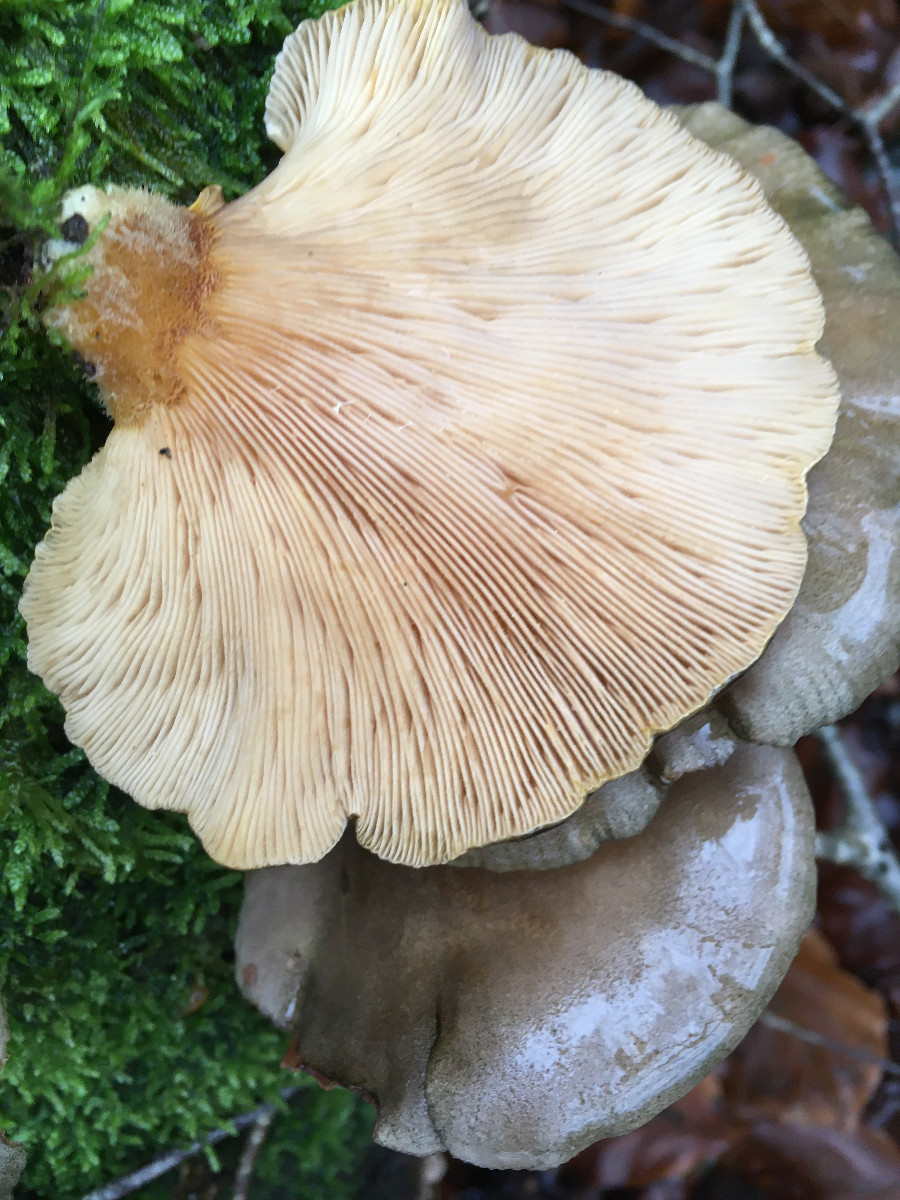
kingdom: Fungi
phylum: Basidiomycota
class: Agaricomycetes
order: Agaricales
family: Sarcomyxaceae
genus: Sarcomyxa
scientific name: Sarcomyxa serotina
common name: gummihat
